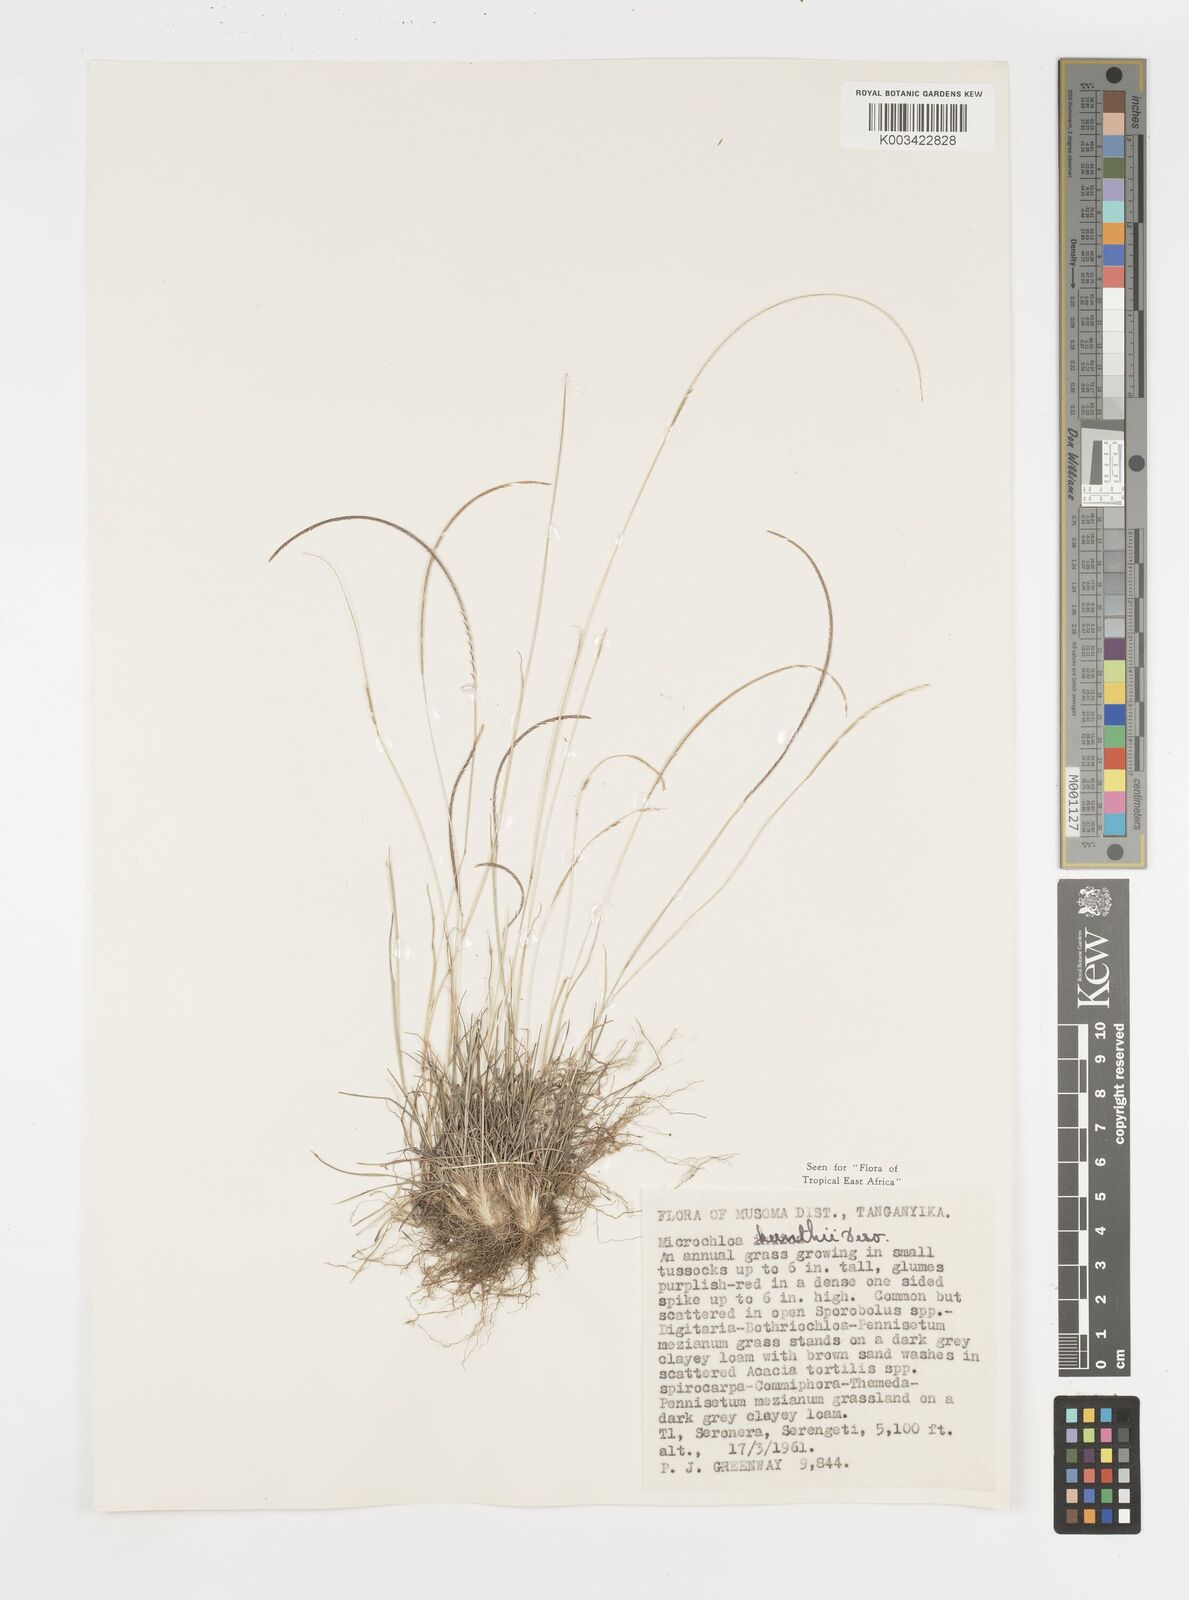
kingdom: Plantae
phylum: Tracheophyta
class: Liliopsida
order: Poales
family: Poaceae
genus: Microchloa
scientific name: Microchloa kunthii
